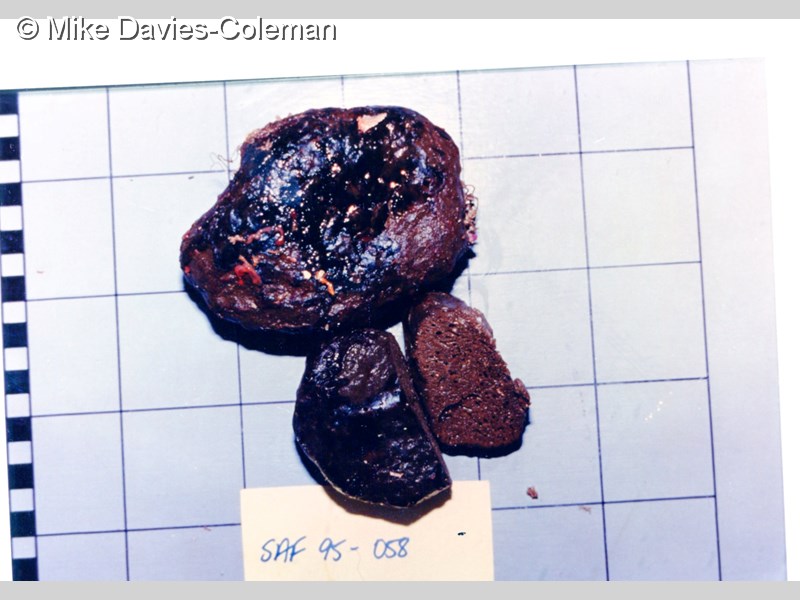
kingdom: Animalia
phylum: Porifera
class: Demospongiae
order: Poecilosclerida
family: Latrunculiidae
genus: Latrunculia
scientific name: Latrunculia
